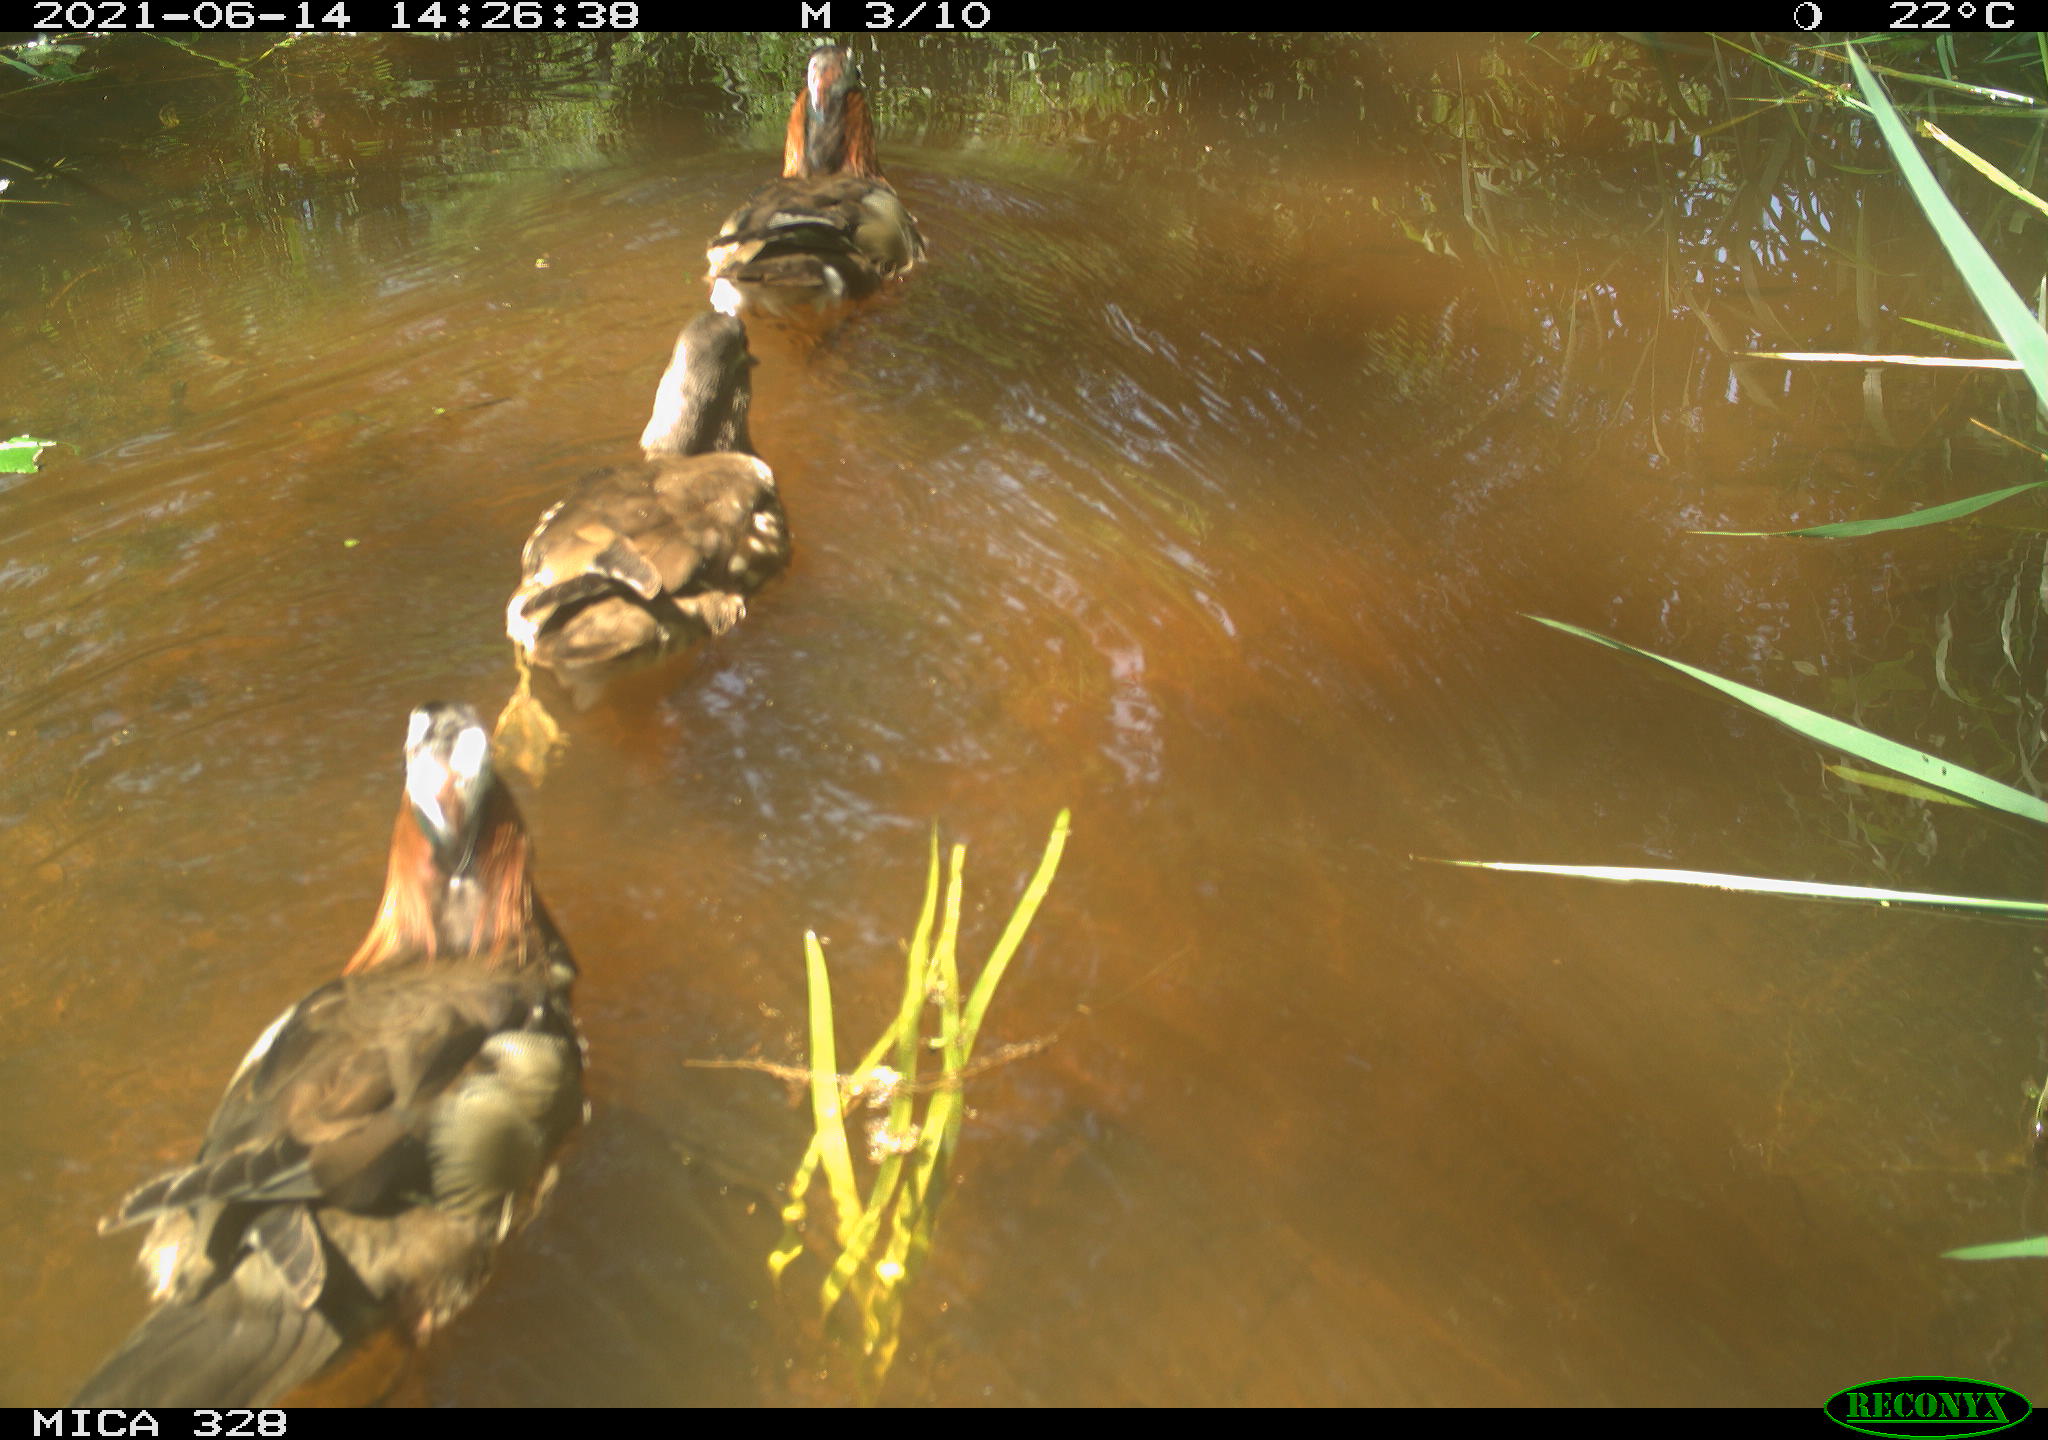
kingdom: Animalia
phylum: Chordata
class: Aves
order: Anseriformes
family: Anatidae
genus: Aix
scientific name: Aix galericulata
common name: Mandarin duck
